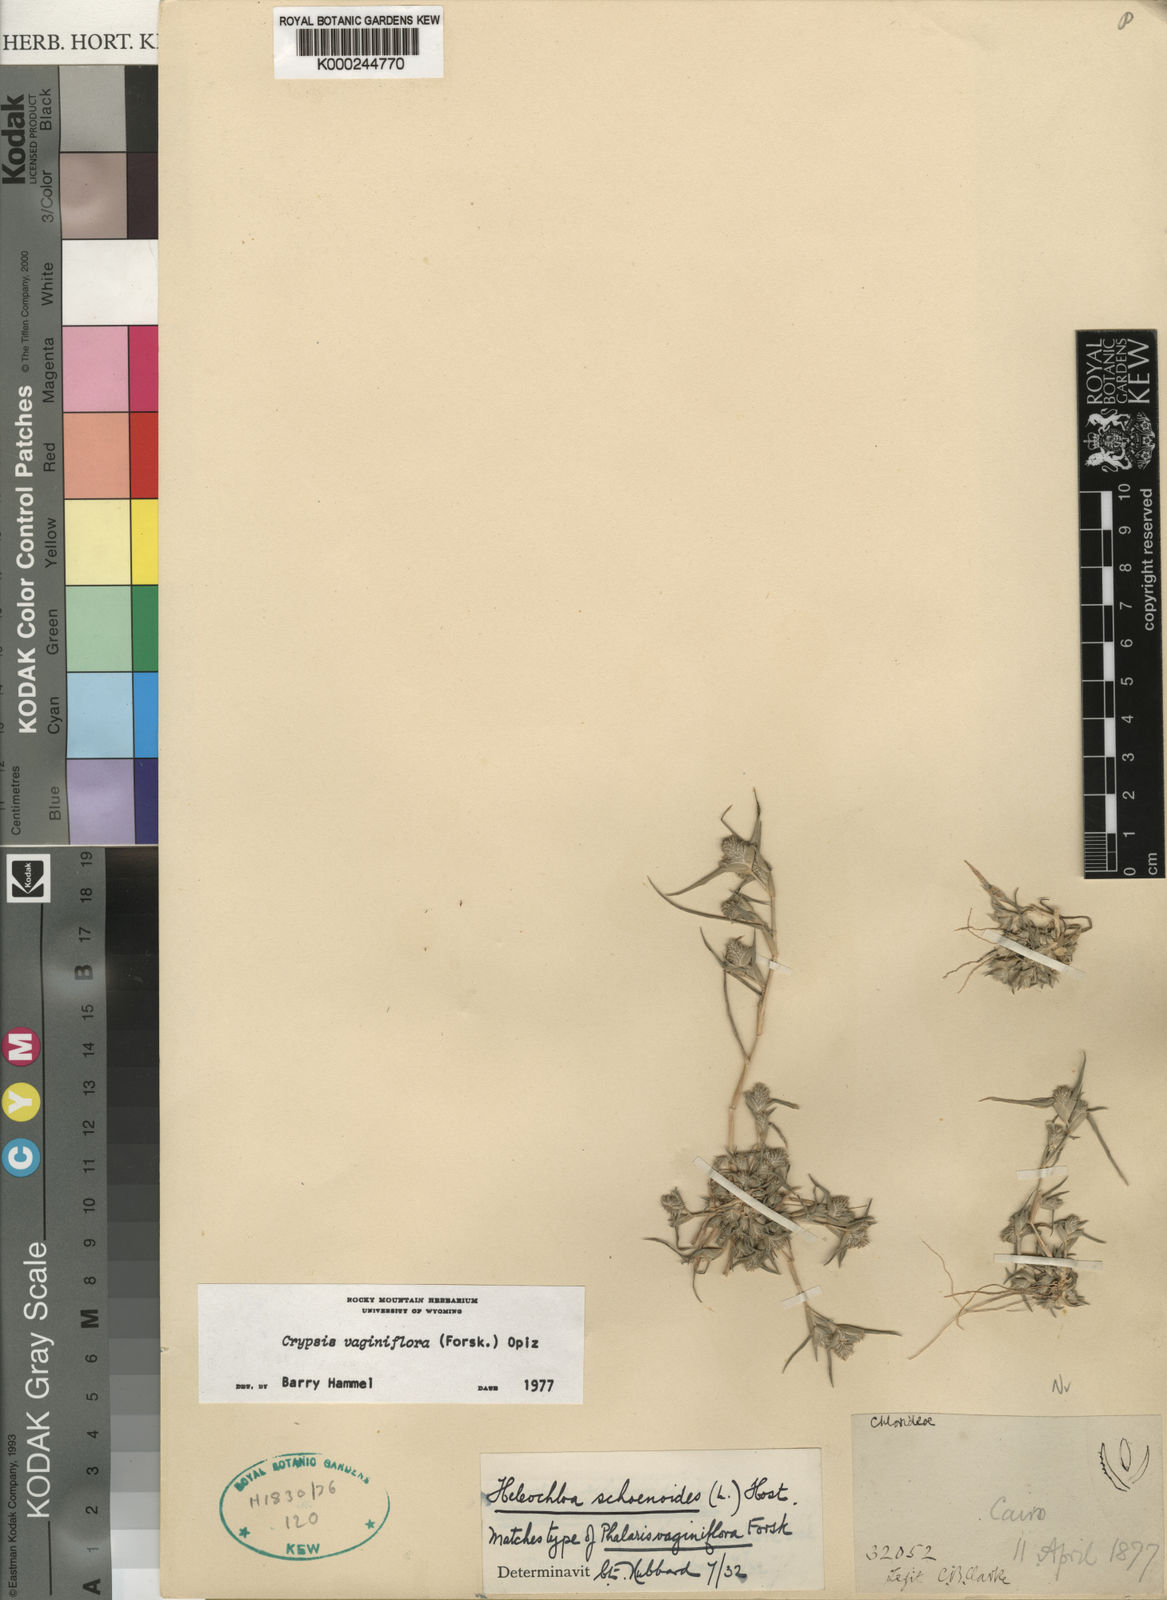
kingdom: Plantae
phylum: Tracheophyta
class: Liliopsida
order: Poales
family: Poaceae
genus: Sporobolus
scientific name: Sporobolus niliacus
